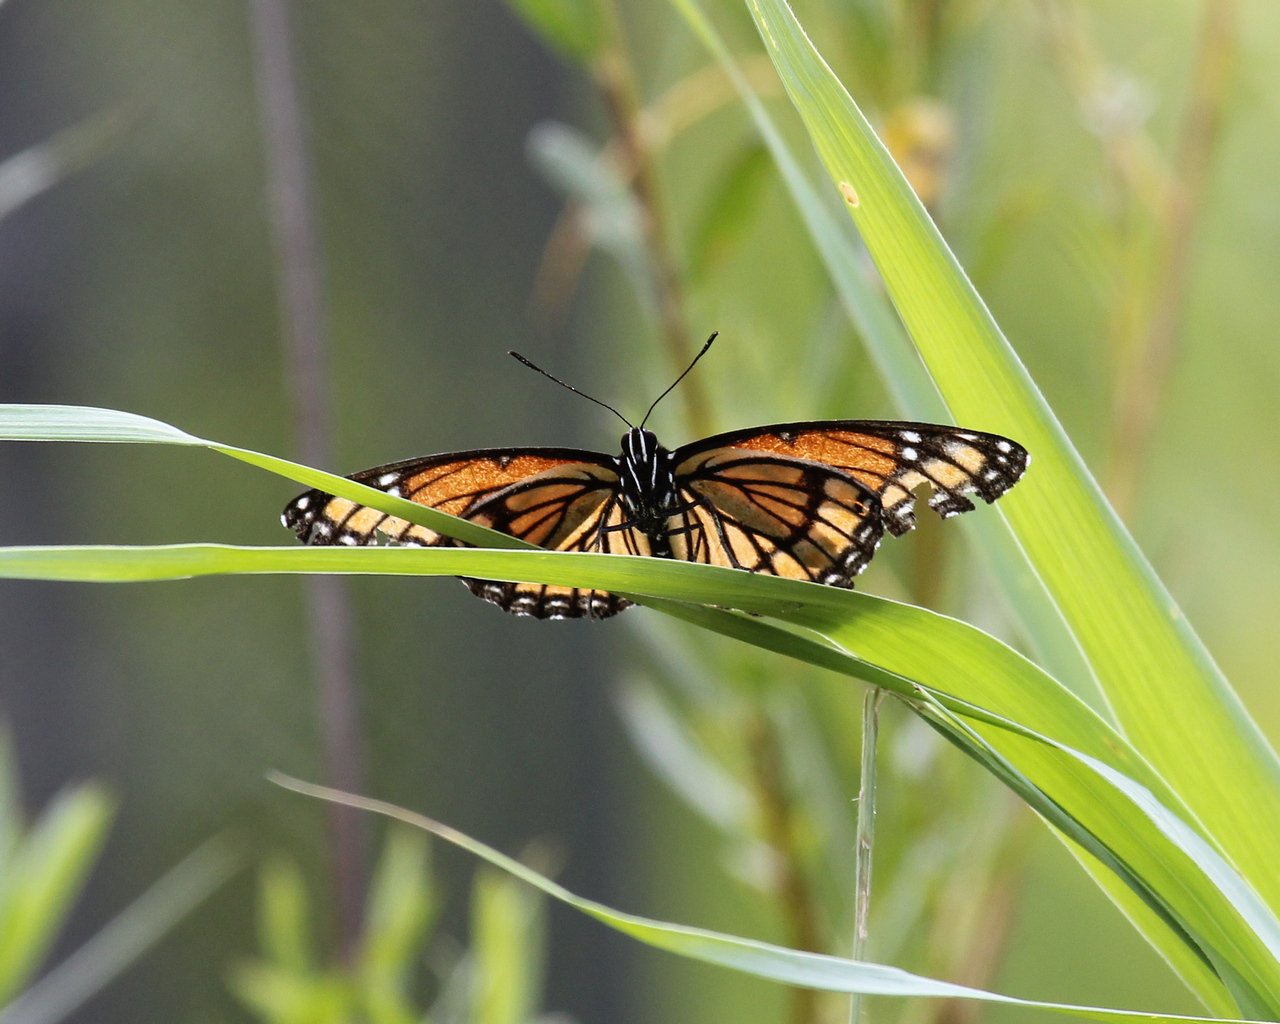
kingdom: Animalia
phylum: Arthropoda
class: Insecta
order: Lepidoptera
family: Nymphalidae
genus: Limenitis
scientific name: Limenitis archippus
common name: Viceroy
